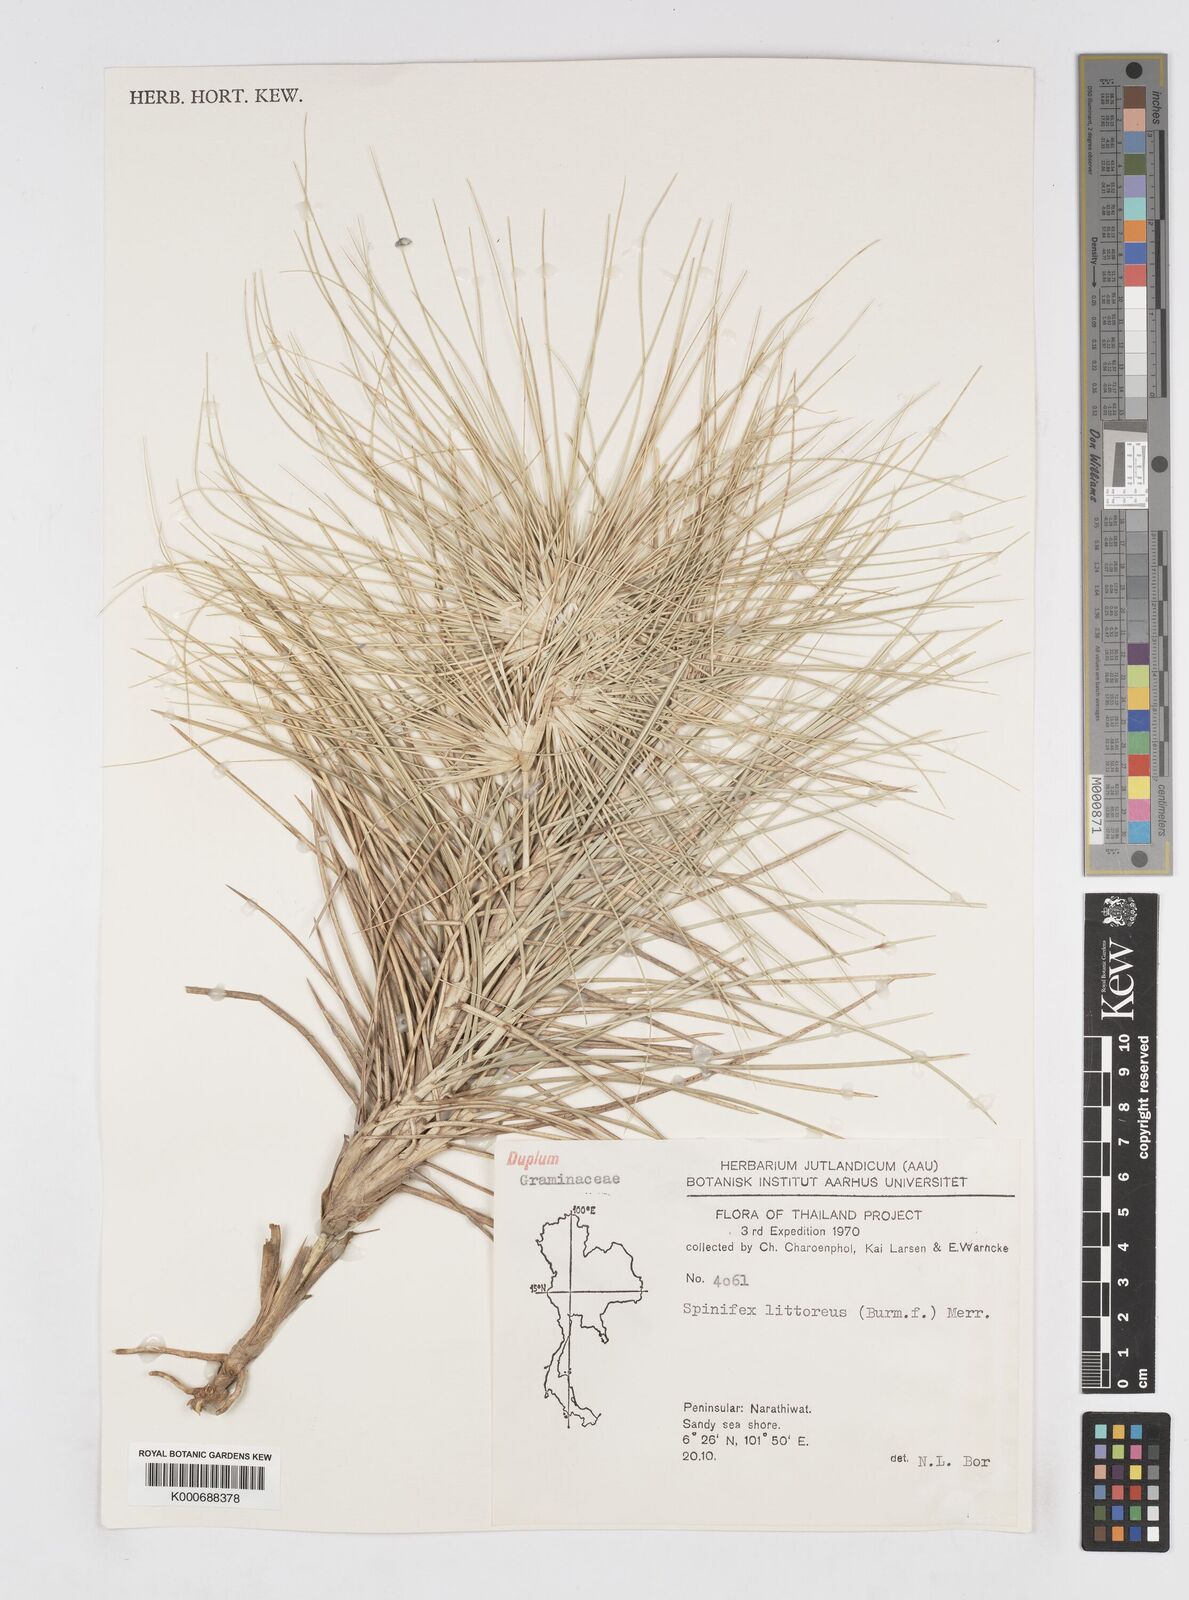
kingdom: Plantae
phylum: Tracheophyta
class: Liliopsida
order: Poales
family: Poaceae
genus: Spinifex
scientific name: Spinifex littoreus
